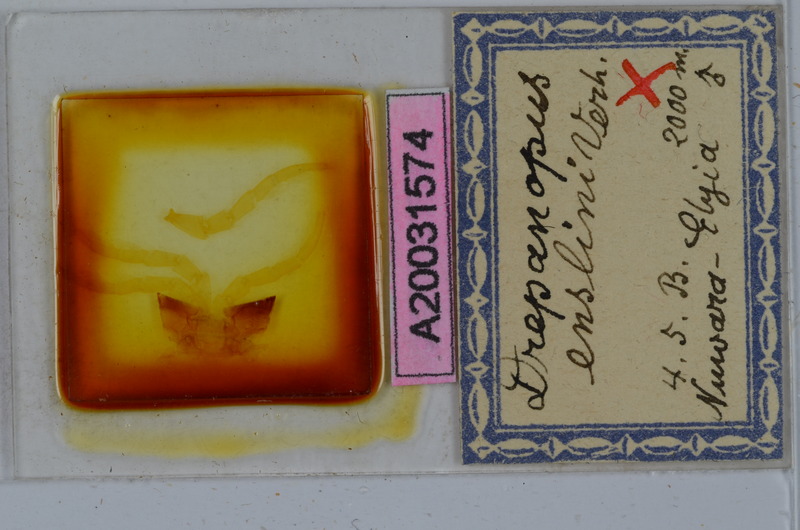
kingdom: Animalia
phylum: Arthropoda
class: Diplopoda
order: Spirostreptida
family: Harpagophoridae
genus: Ktenostreptus
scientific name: Ktenostreptus centrurus
